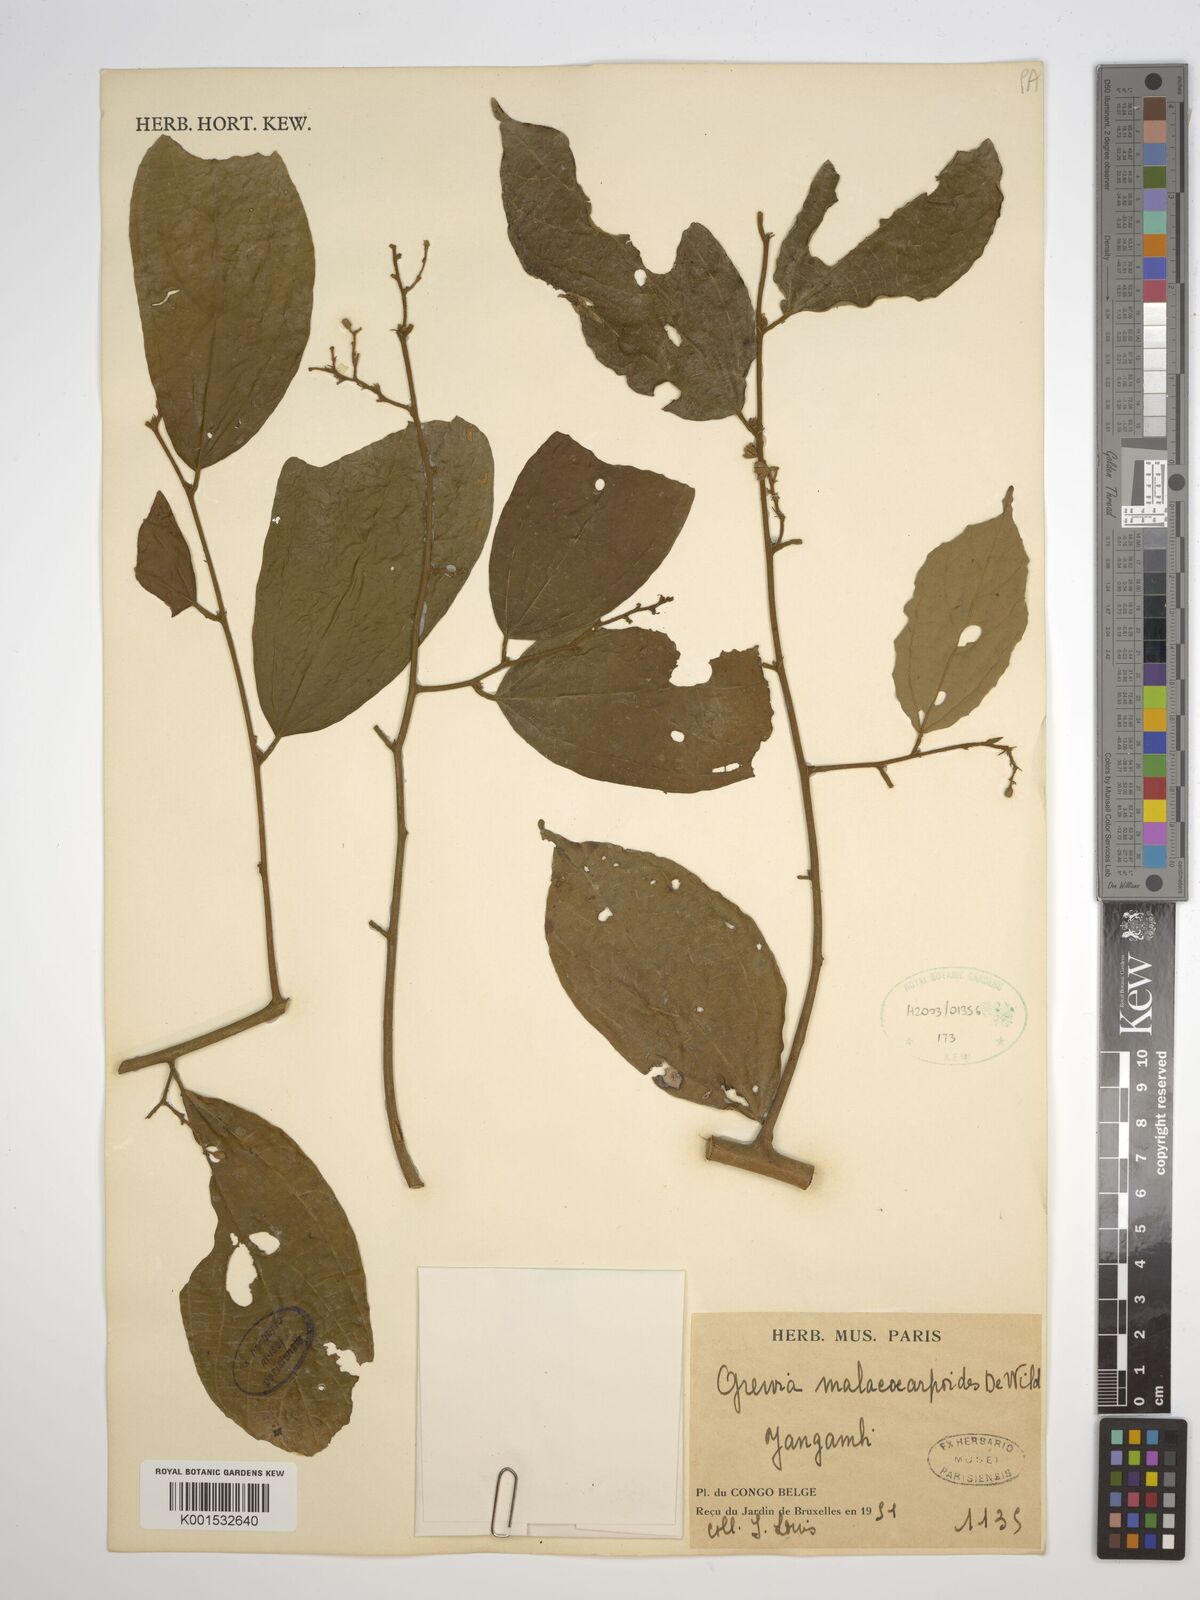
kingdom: Plantae
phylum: Tracheophyta
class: Magnoliopsida
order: Malvales
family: Malvaceae
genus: Microcos
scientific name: Microcos malacocarpa
